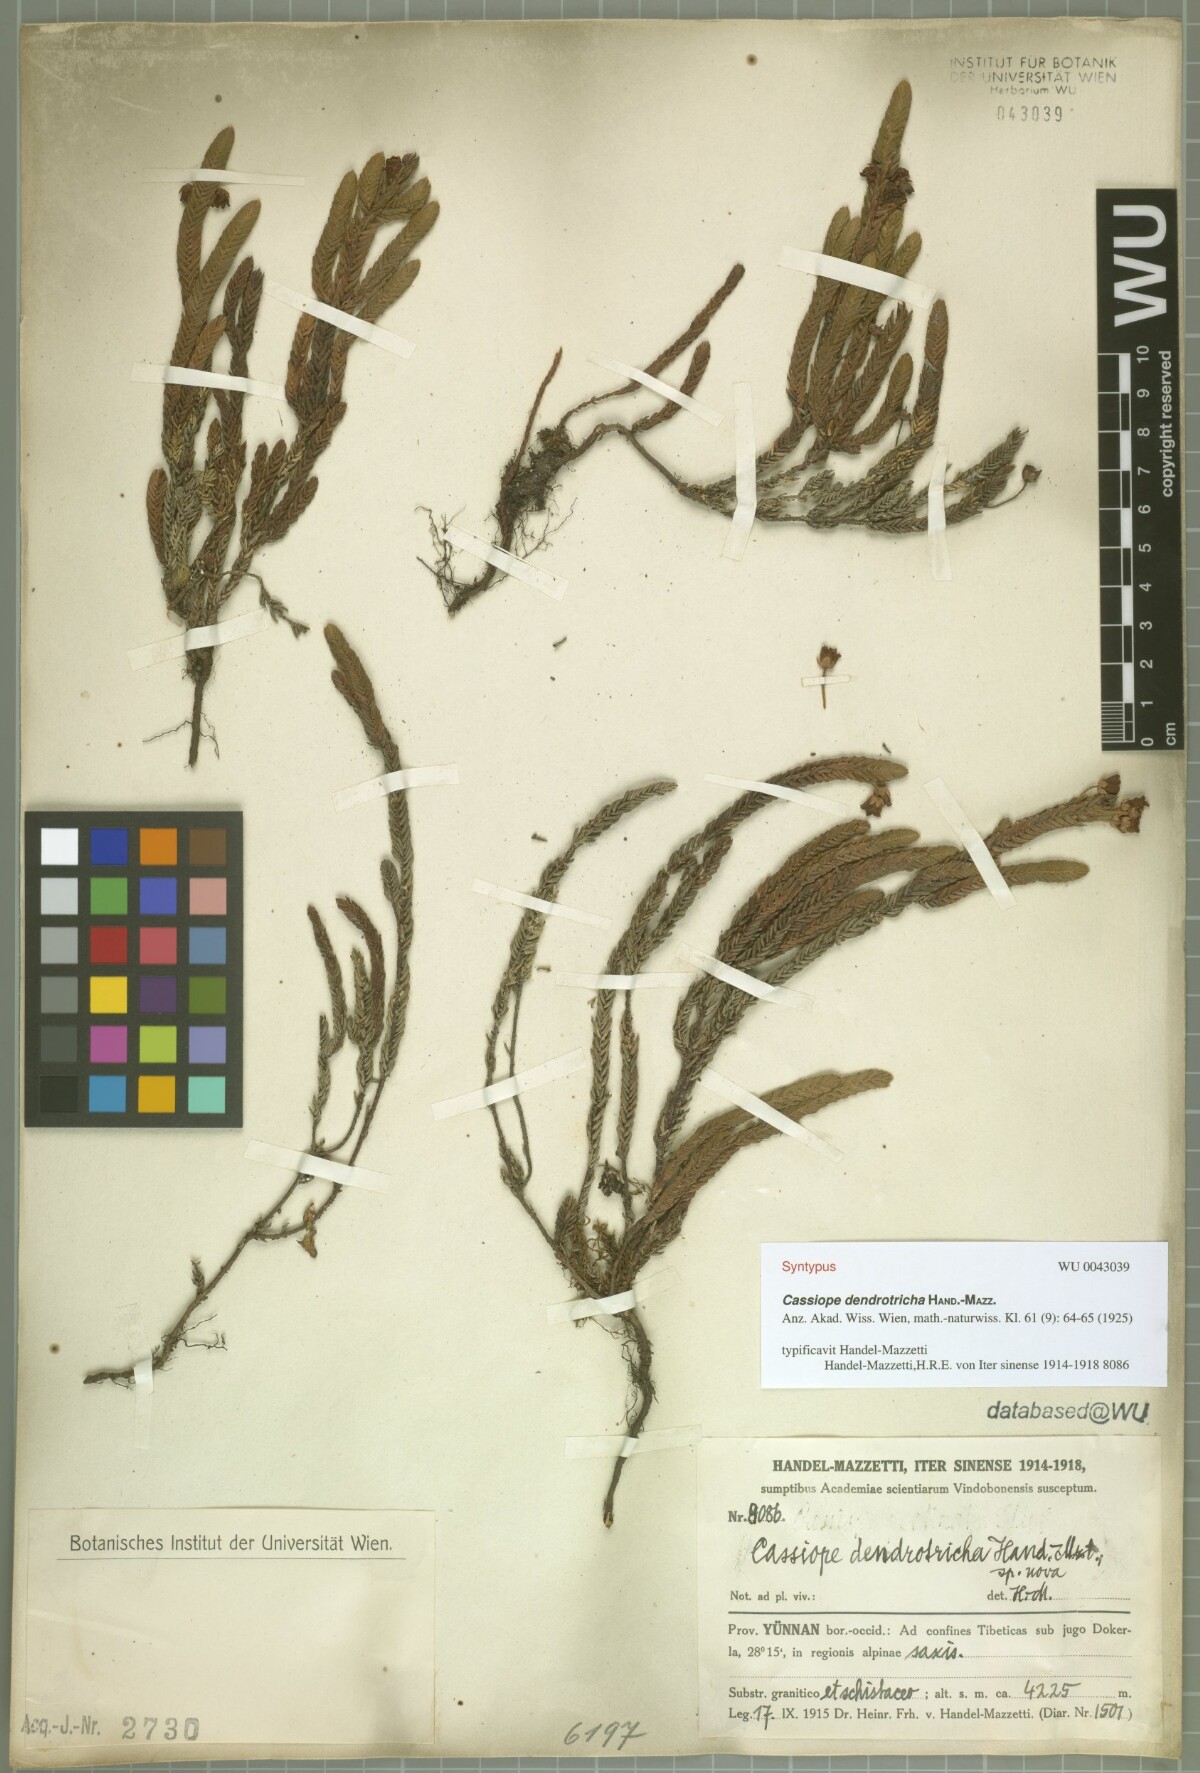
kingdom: Plantae
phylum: Tracheophyta
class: Magnoliopsida
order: Ericales
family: Ericaceae
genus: Cassiope
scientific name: Cassiope pectinata
